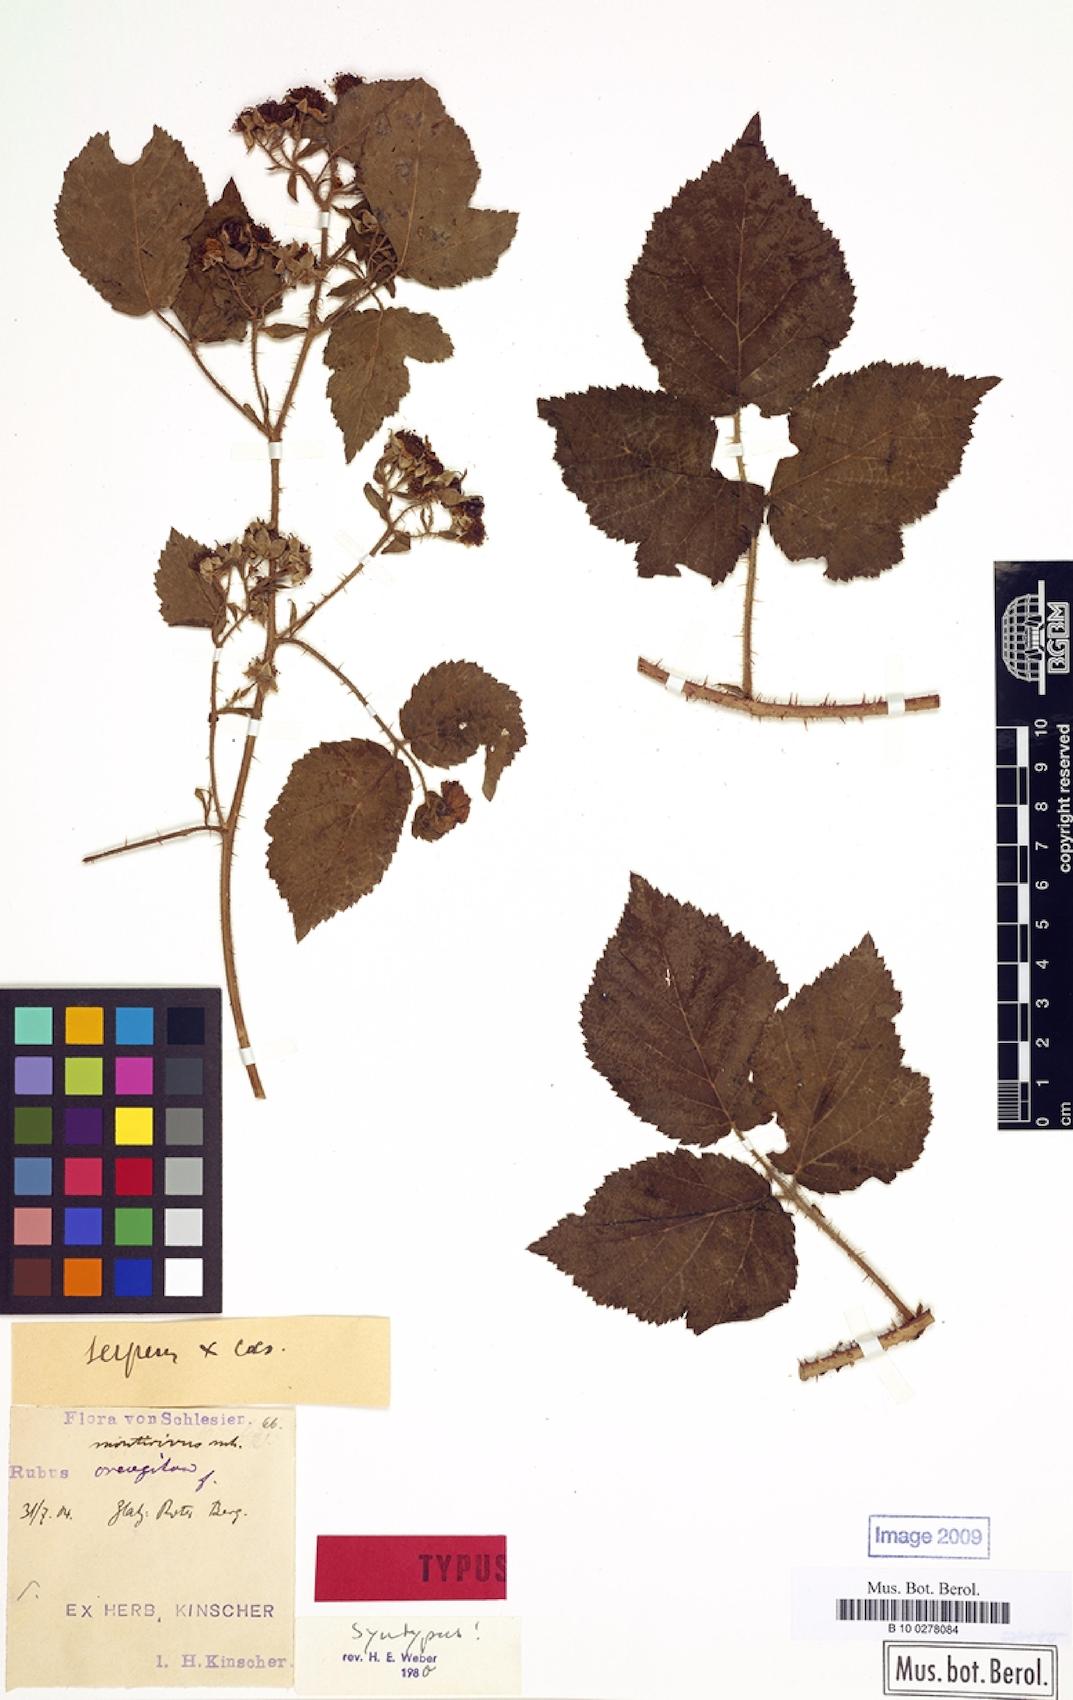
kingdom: Plantae
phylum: Tracheophyta
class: Magnoliopsida
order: Rosales
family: Rosaceae
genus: Rubus
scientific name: Rubus dollnensis
